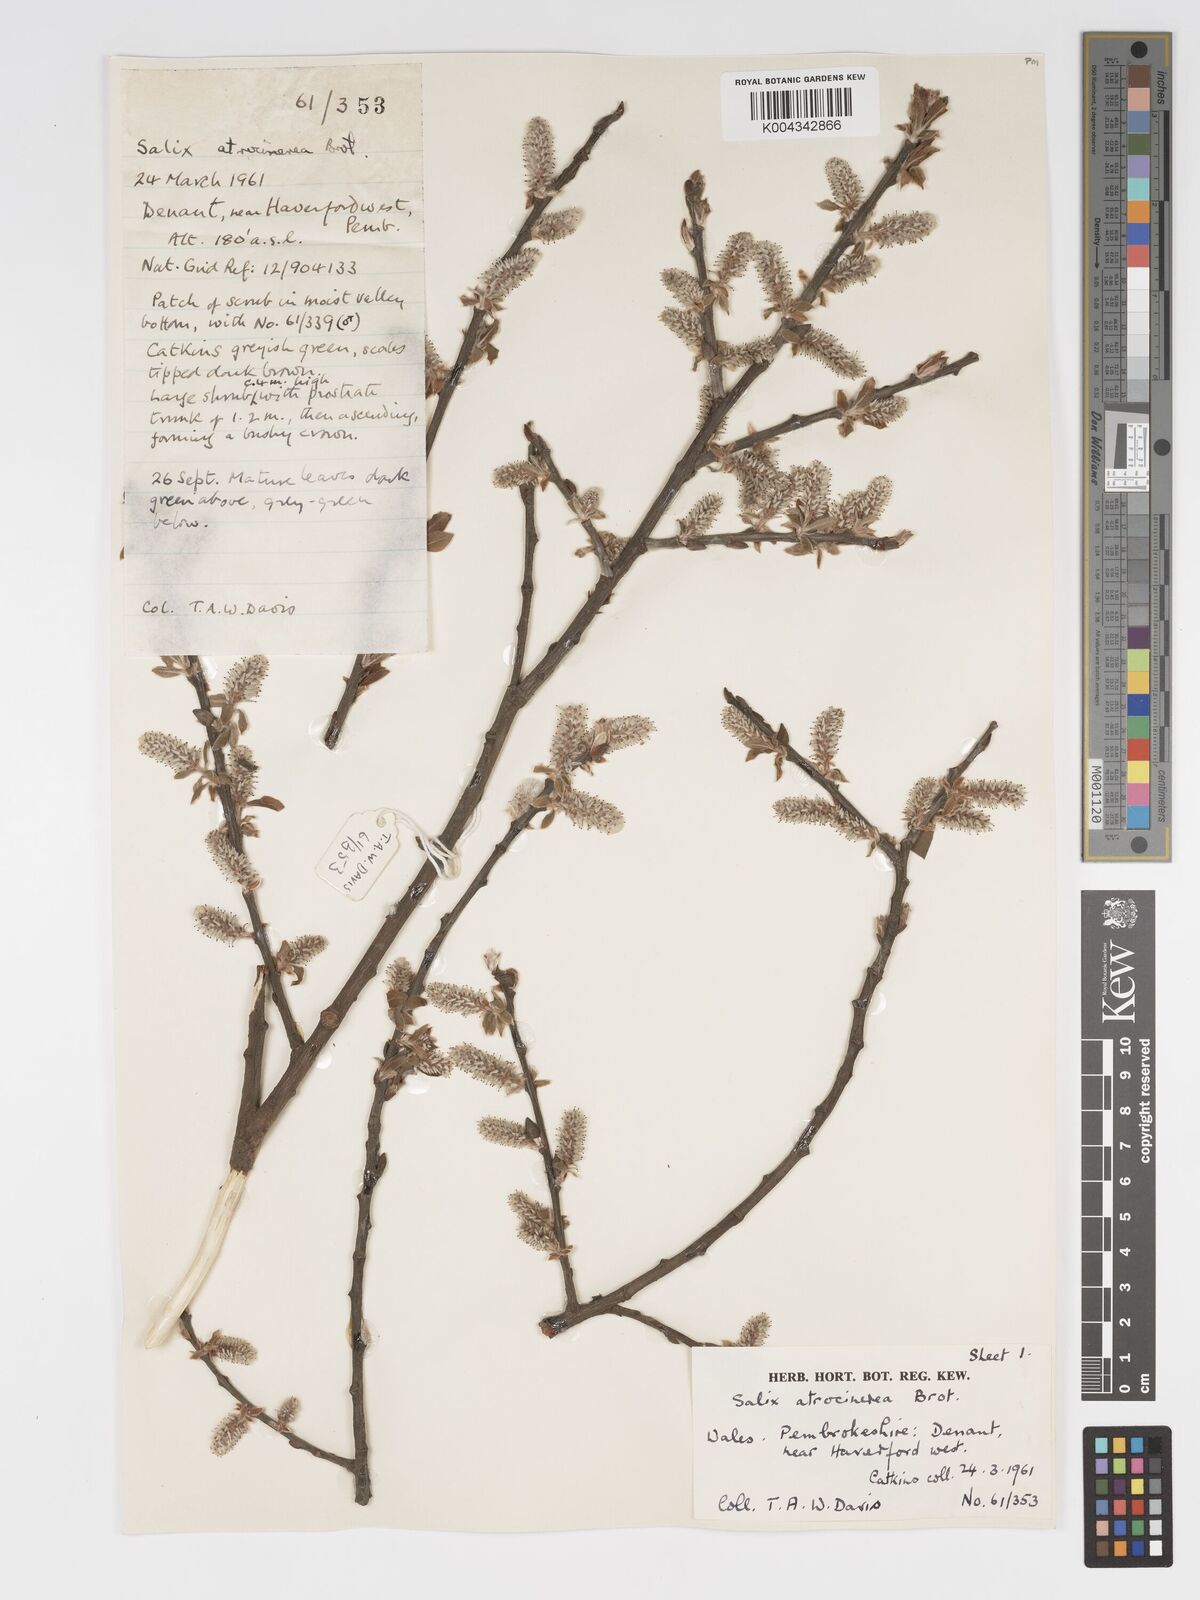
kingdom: Plantae
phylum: Tracheophyta
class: Magnoliopsida
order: Malpighiales
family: Salicaceae
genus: Salix
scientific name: Salix atrocinerea
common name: Rusty willow
